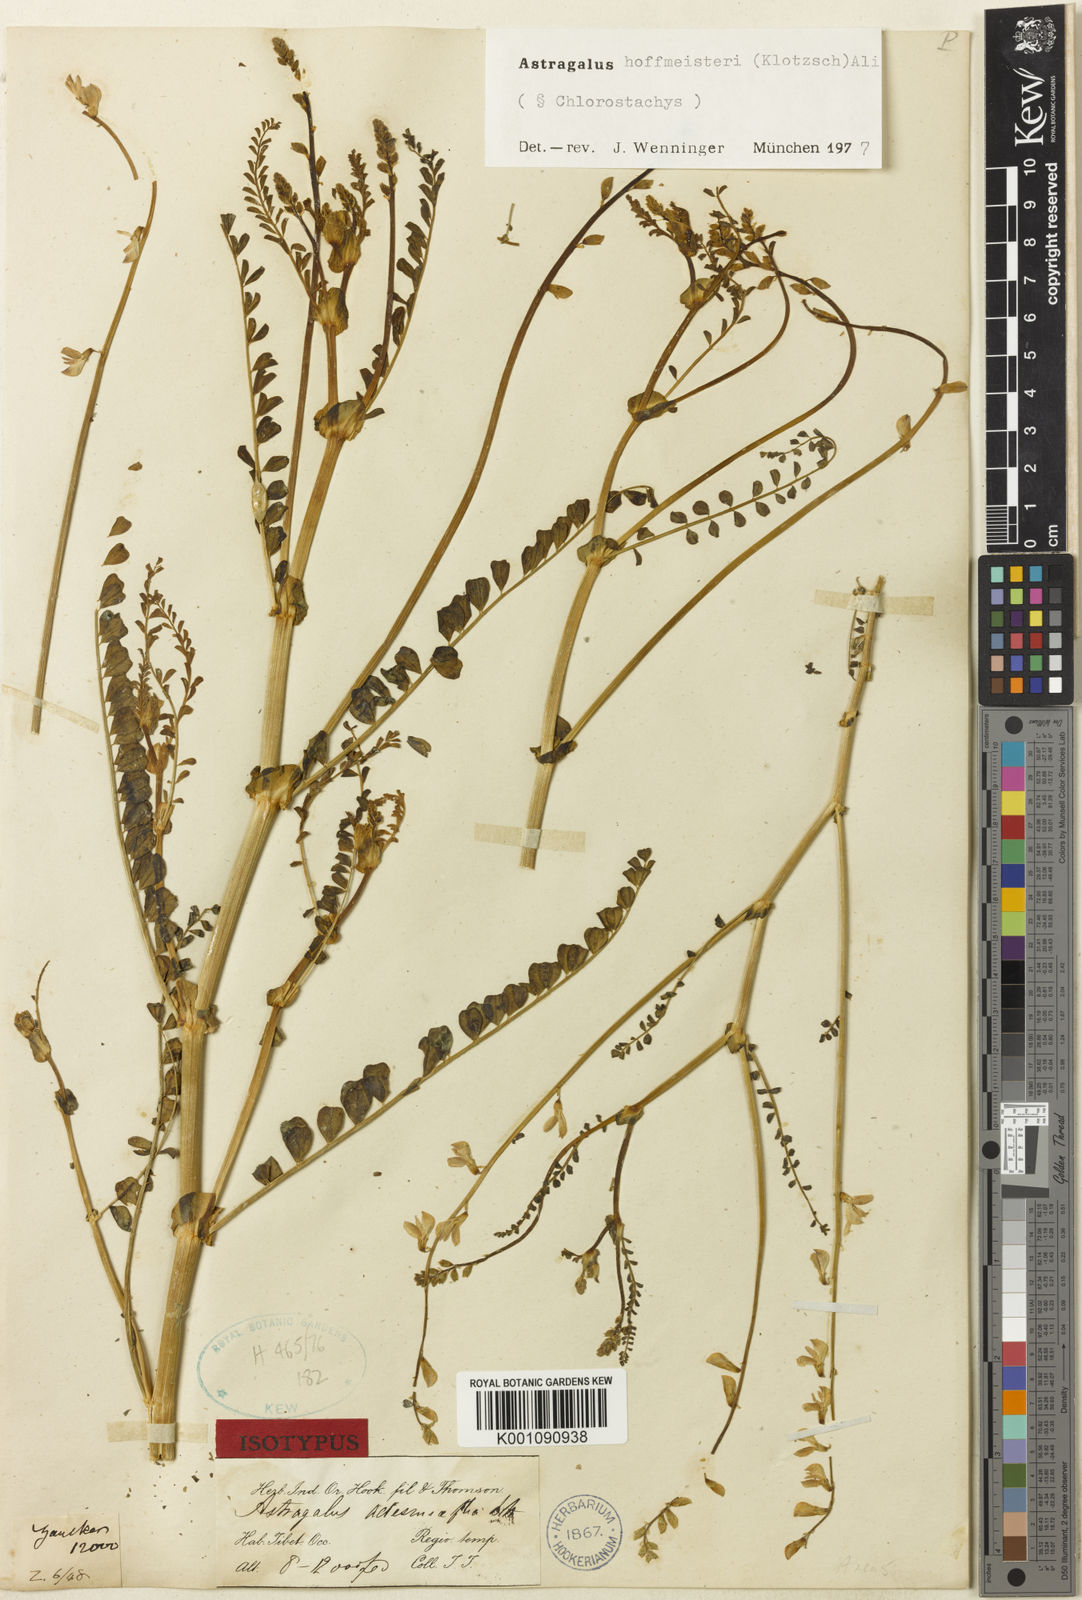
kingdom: Plantae
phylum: Tracheophyta
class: Magnoliopsida
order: Fabales
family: Fabaceae
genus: Astragalus
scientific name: Astragalus hoffmeisteri
